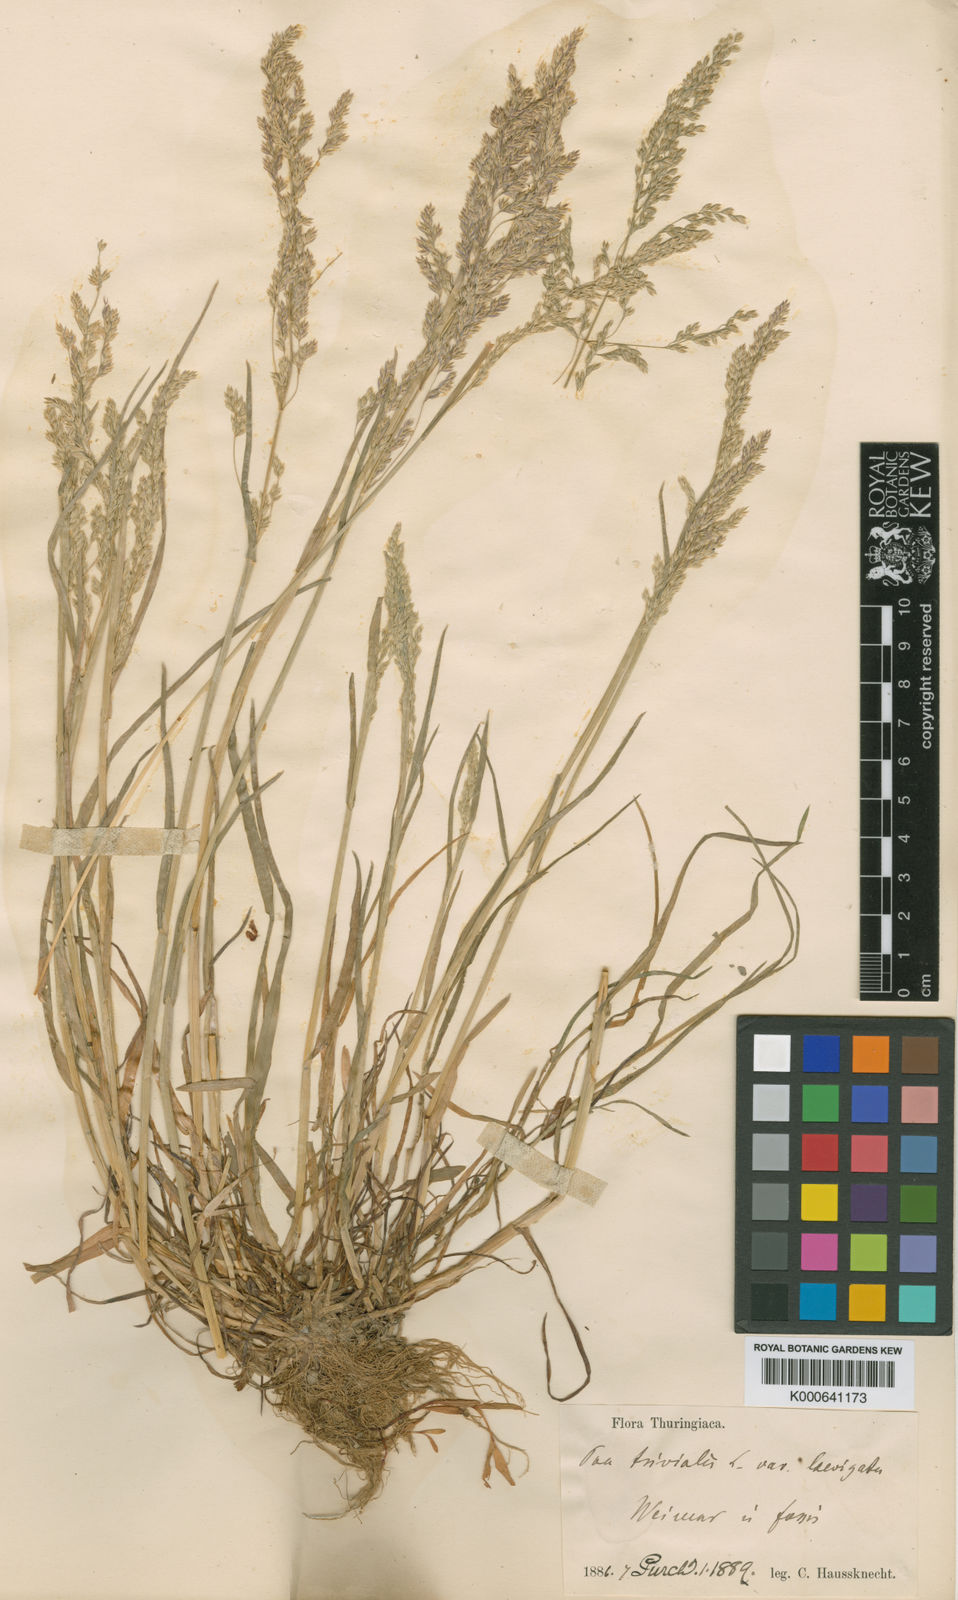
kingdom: Plantae
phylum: Tracheophyta
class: Liliopsida
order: Poales
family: Poaceae
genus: Poa
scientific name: Poa trivialis
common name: Rough bluegrass
